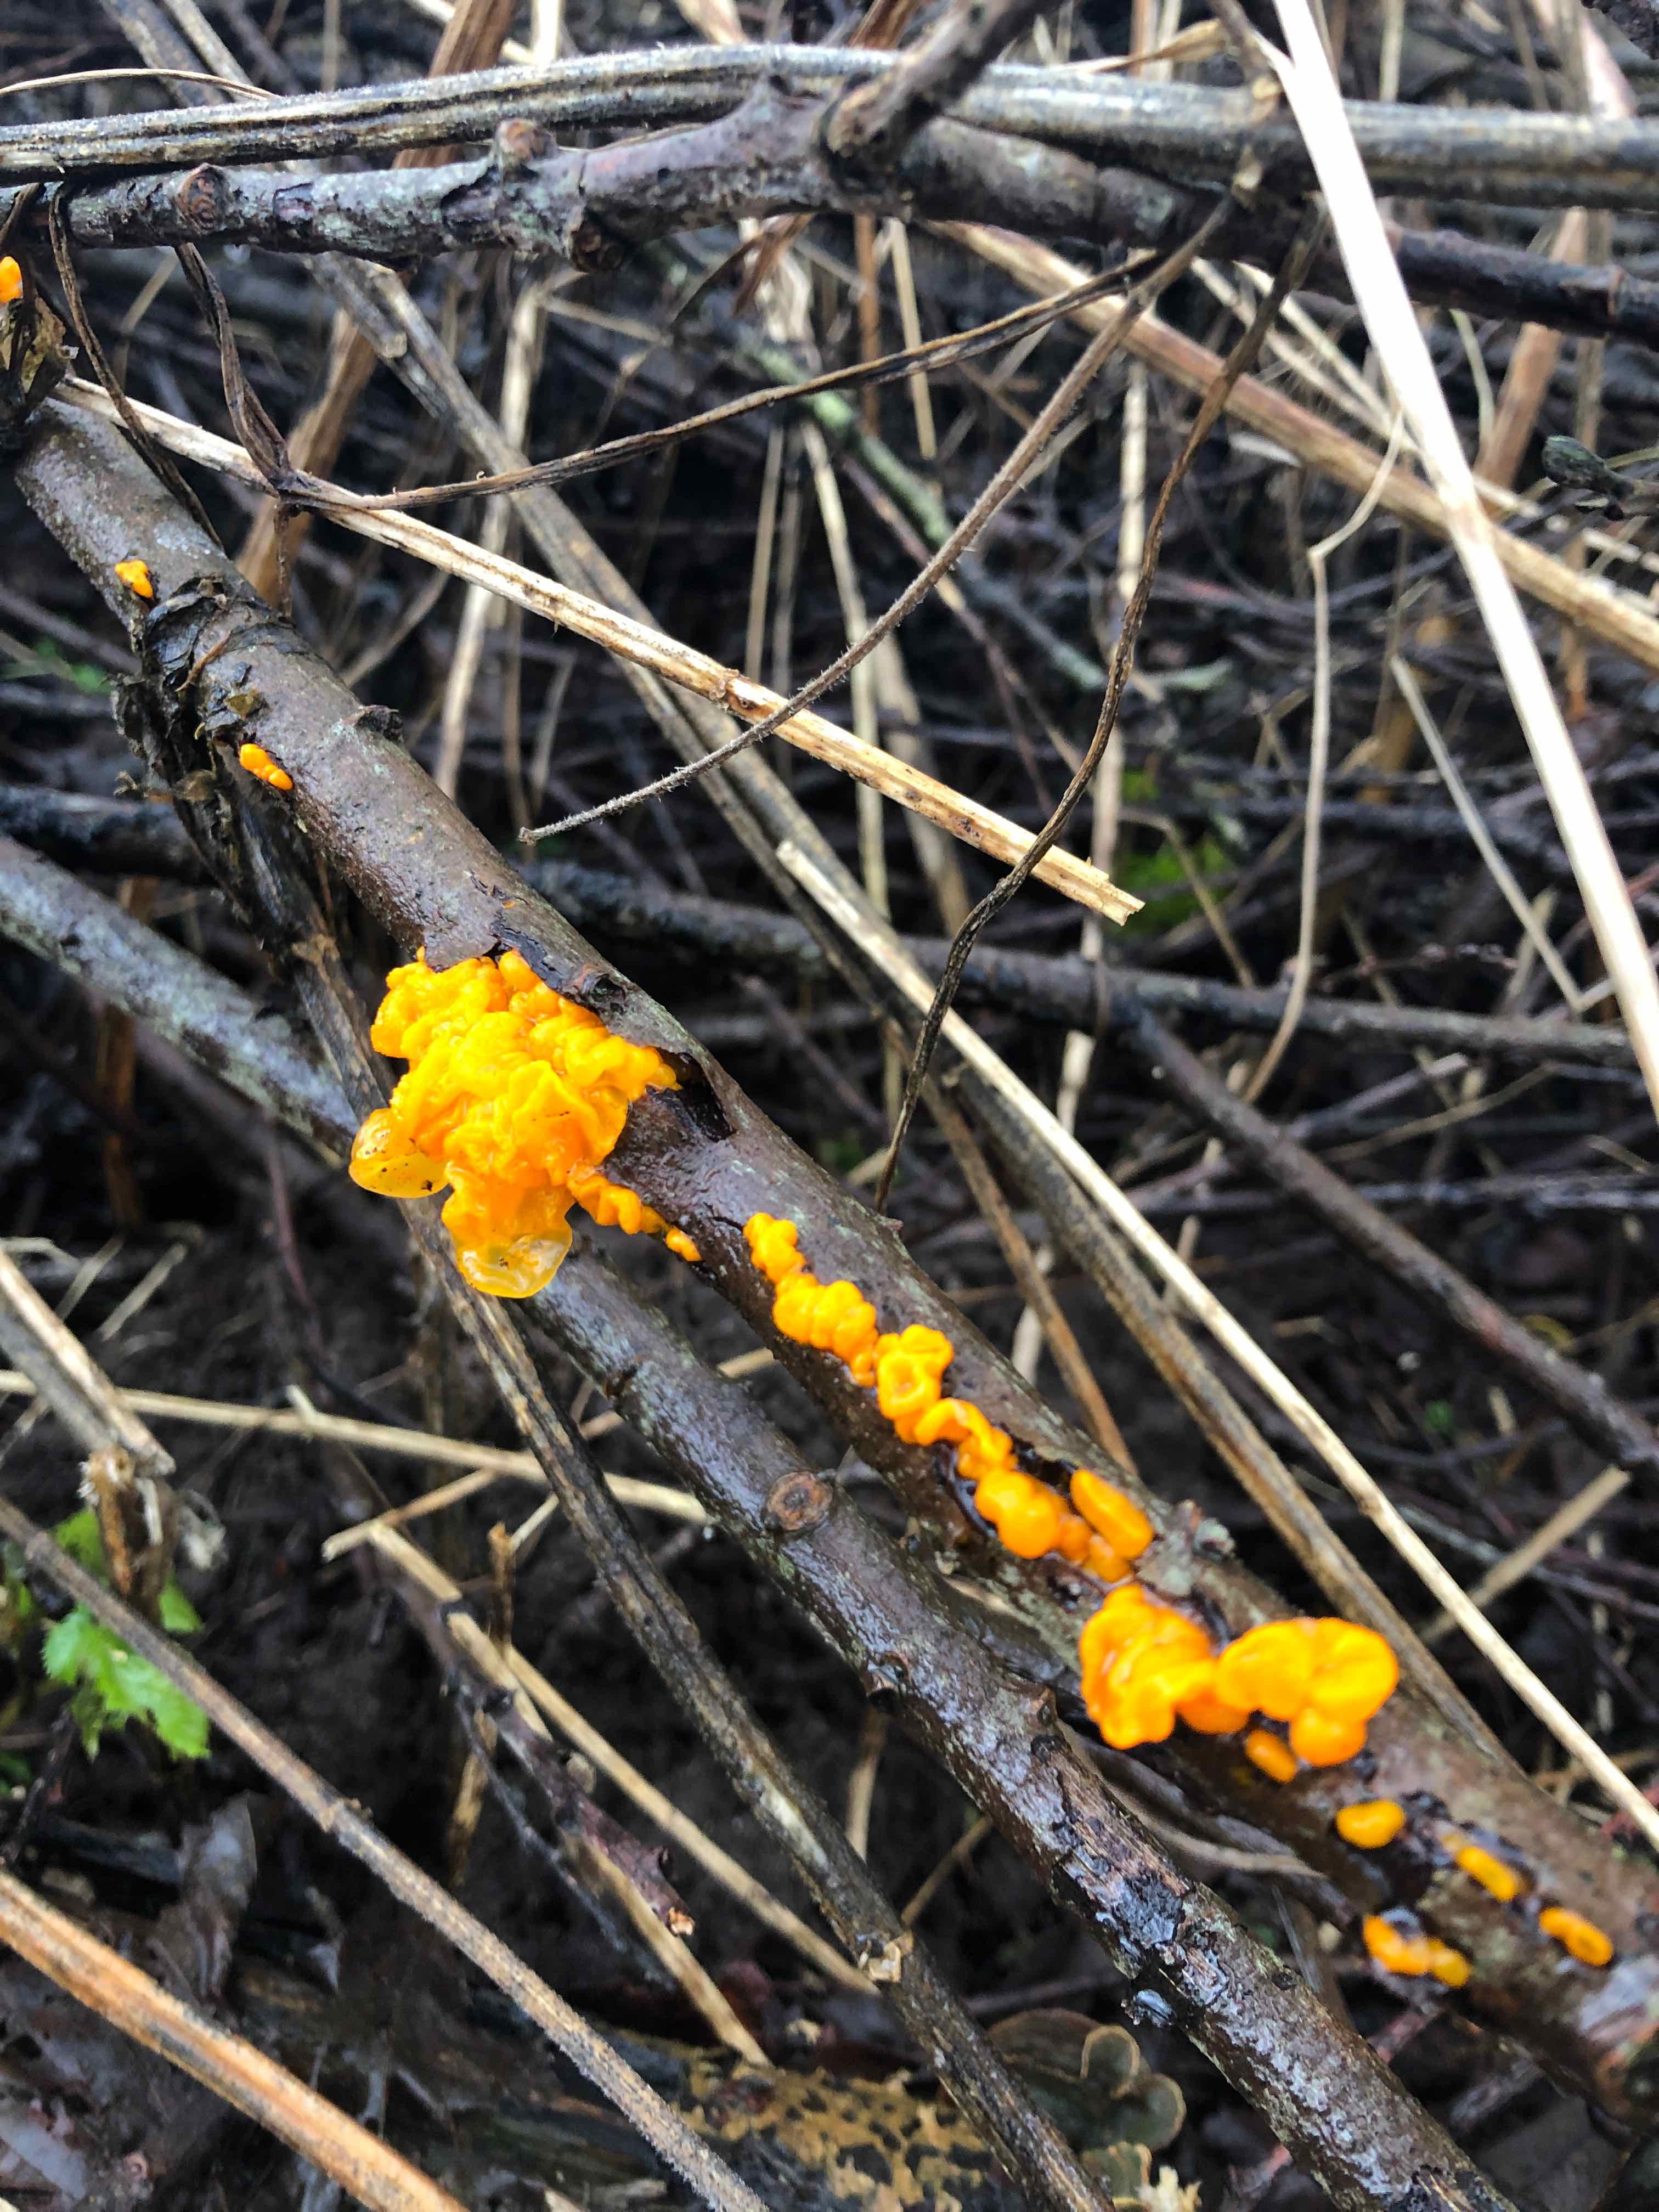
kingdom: Fungi
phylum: Basidiomycota
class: Tremellomycetes
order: Tremellales
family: Tremellaceae
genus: Tremella
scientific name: Tremella mesenterica
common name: gul bævresvamp
